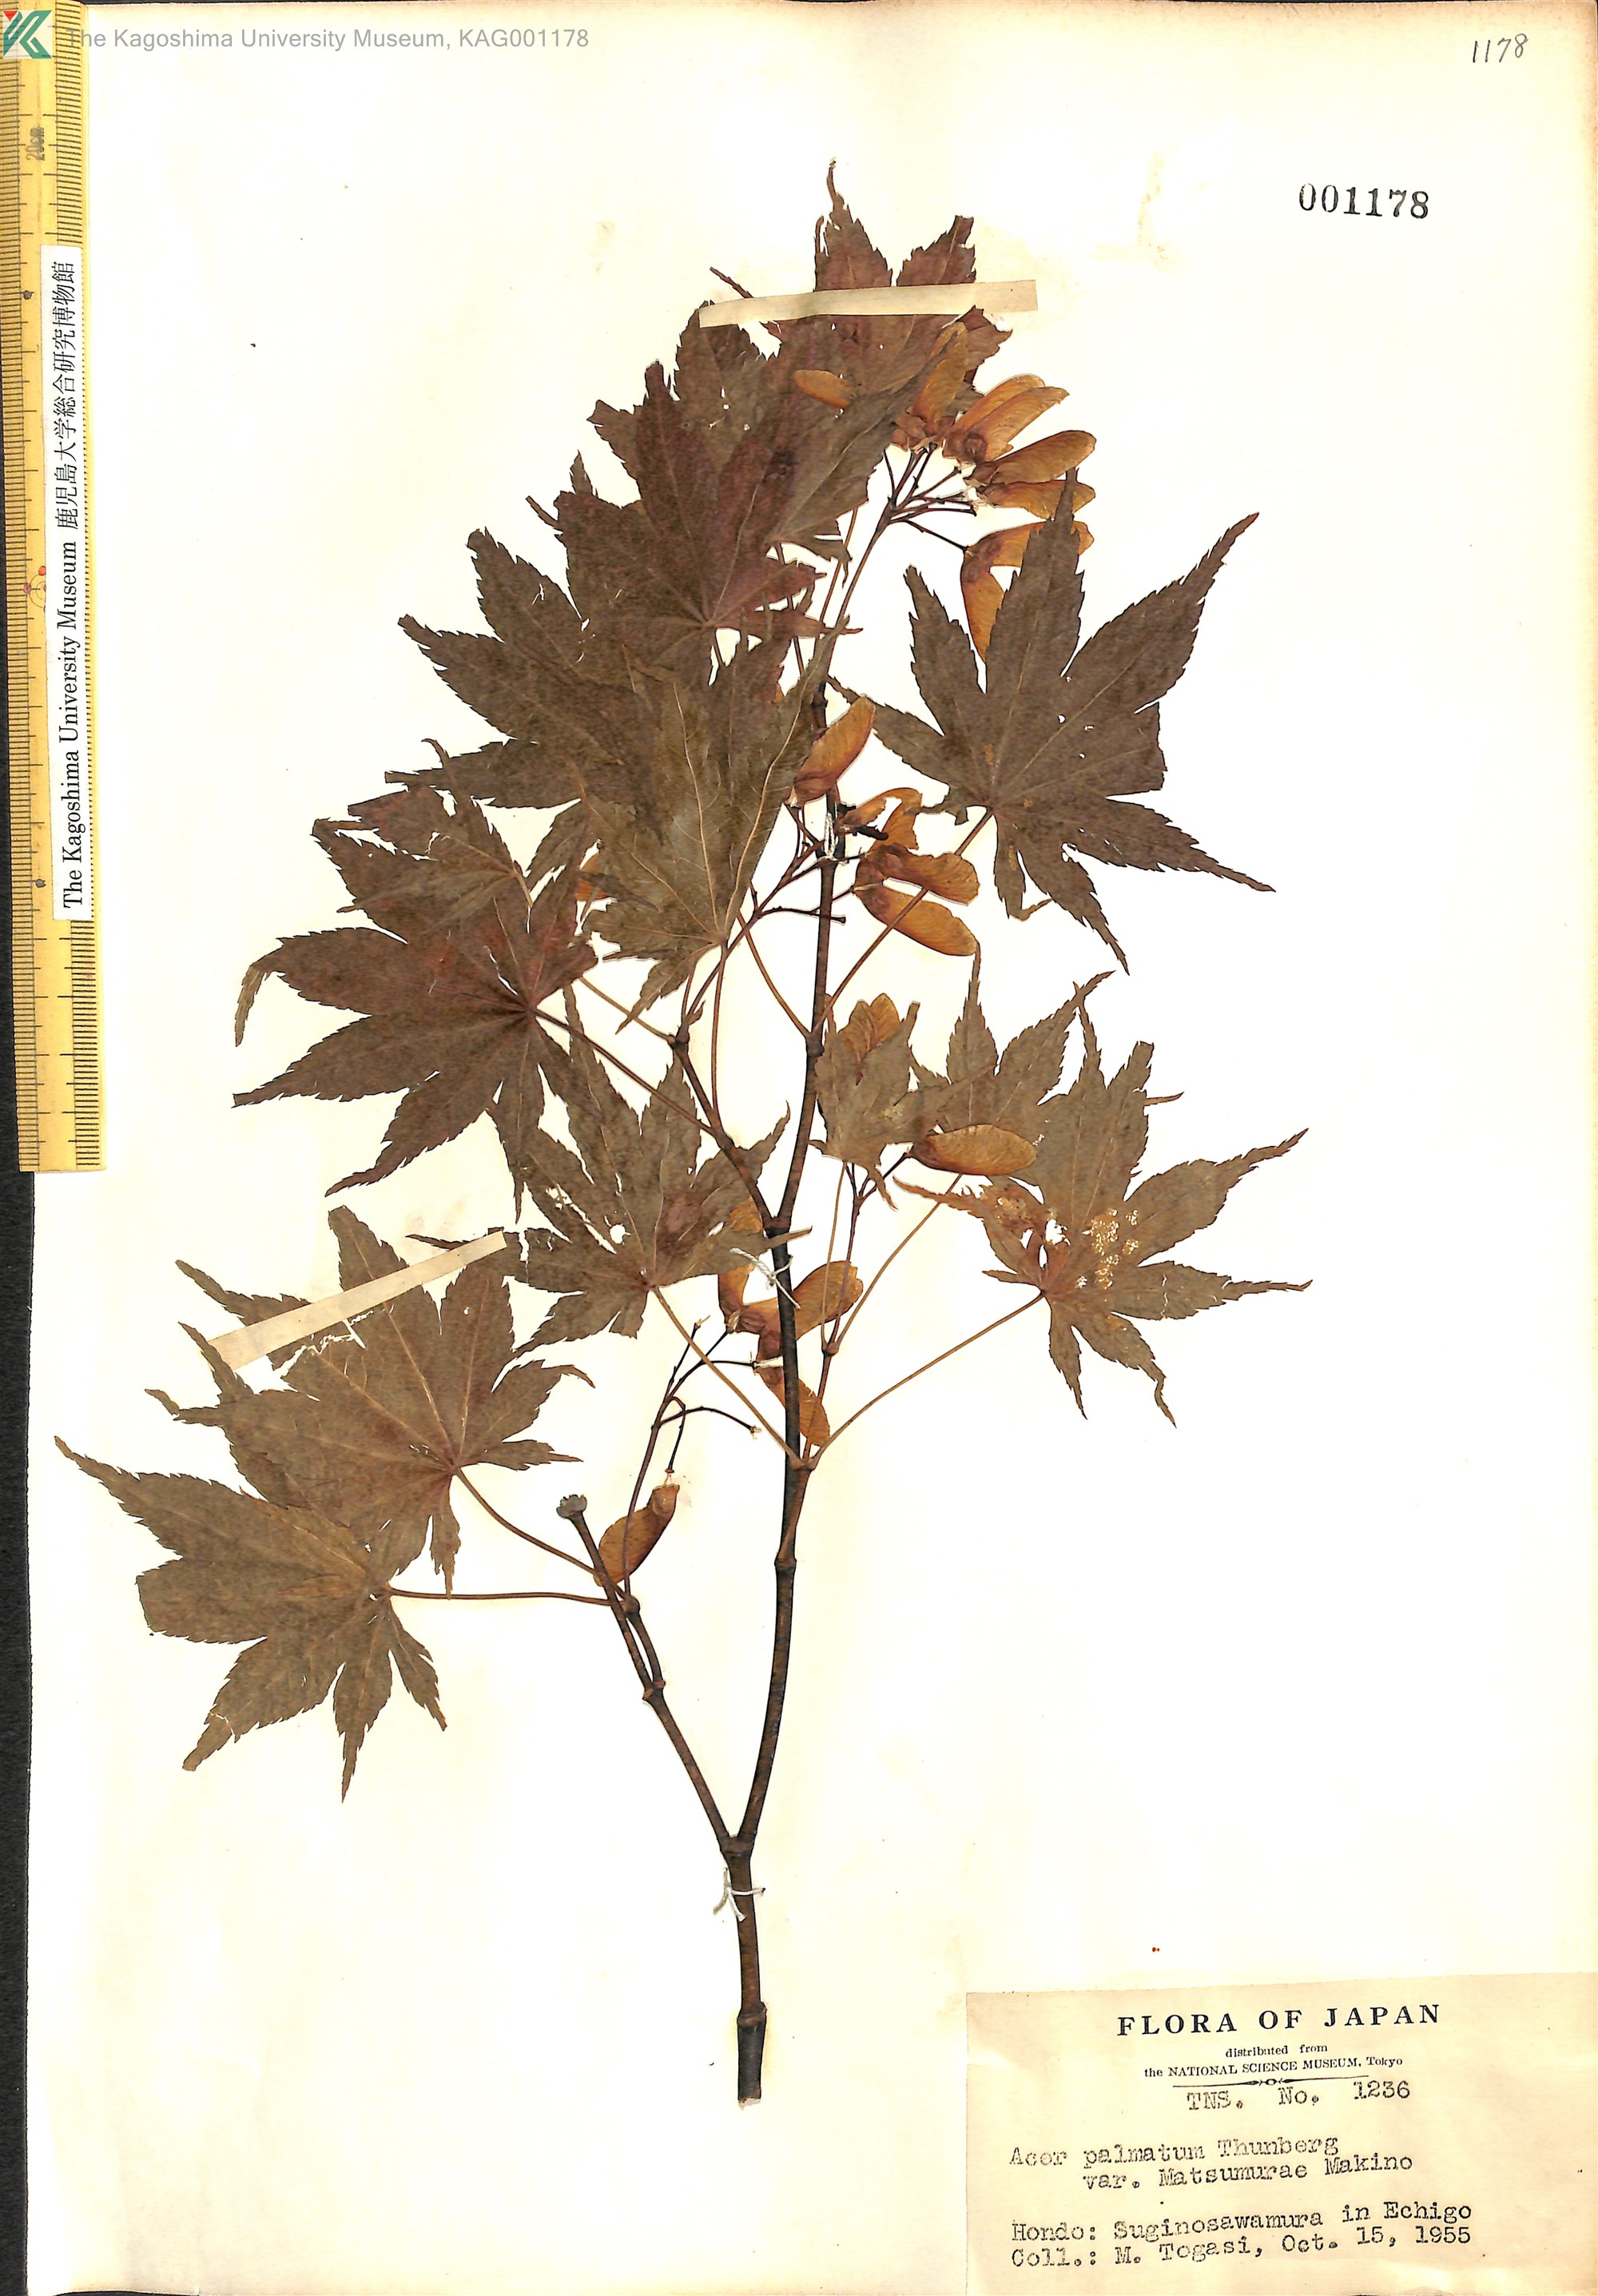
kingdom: Plantae
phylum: Tracheophyta
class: Magnoliopsida
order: Sapindales
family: Sapindaceae
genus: Acer
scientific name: Acer palmatum
